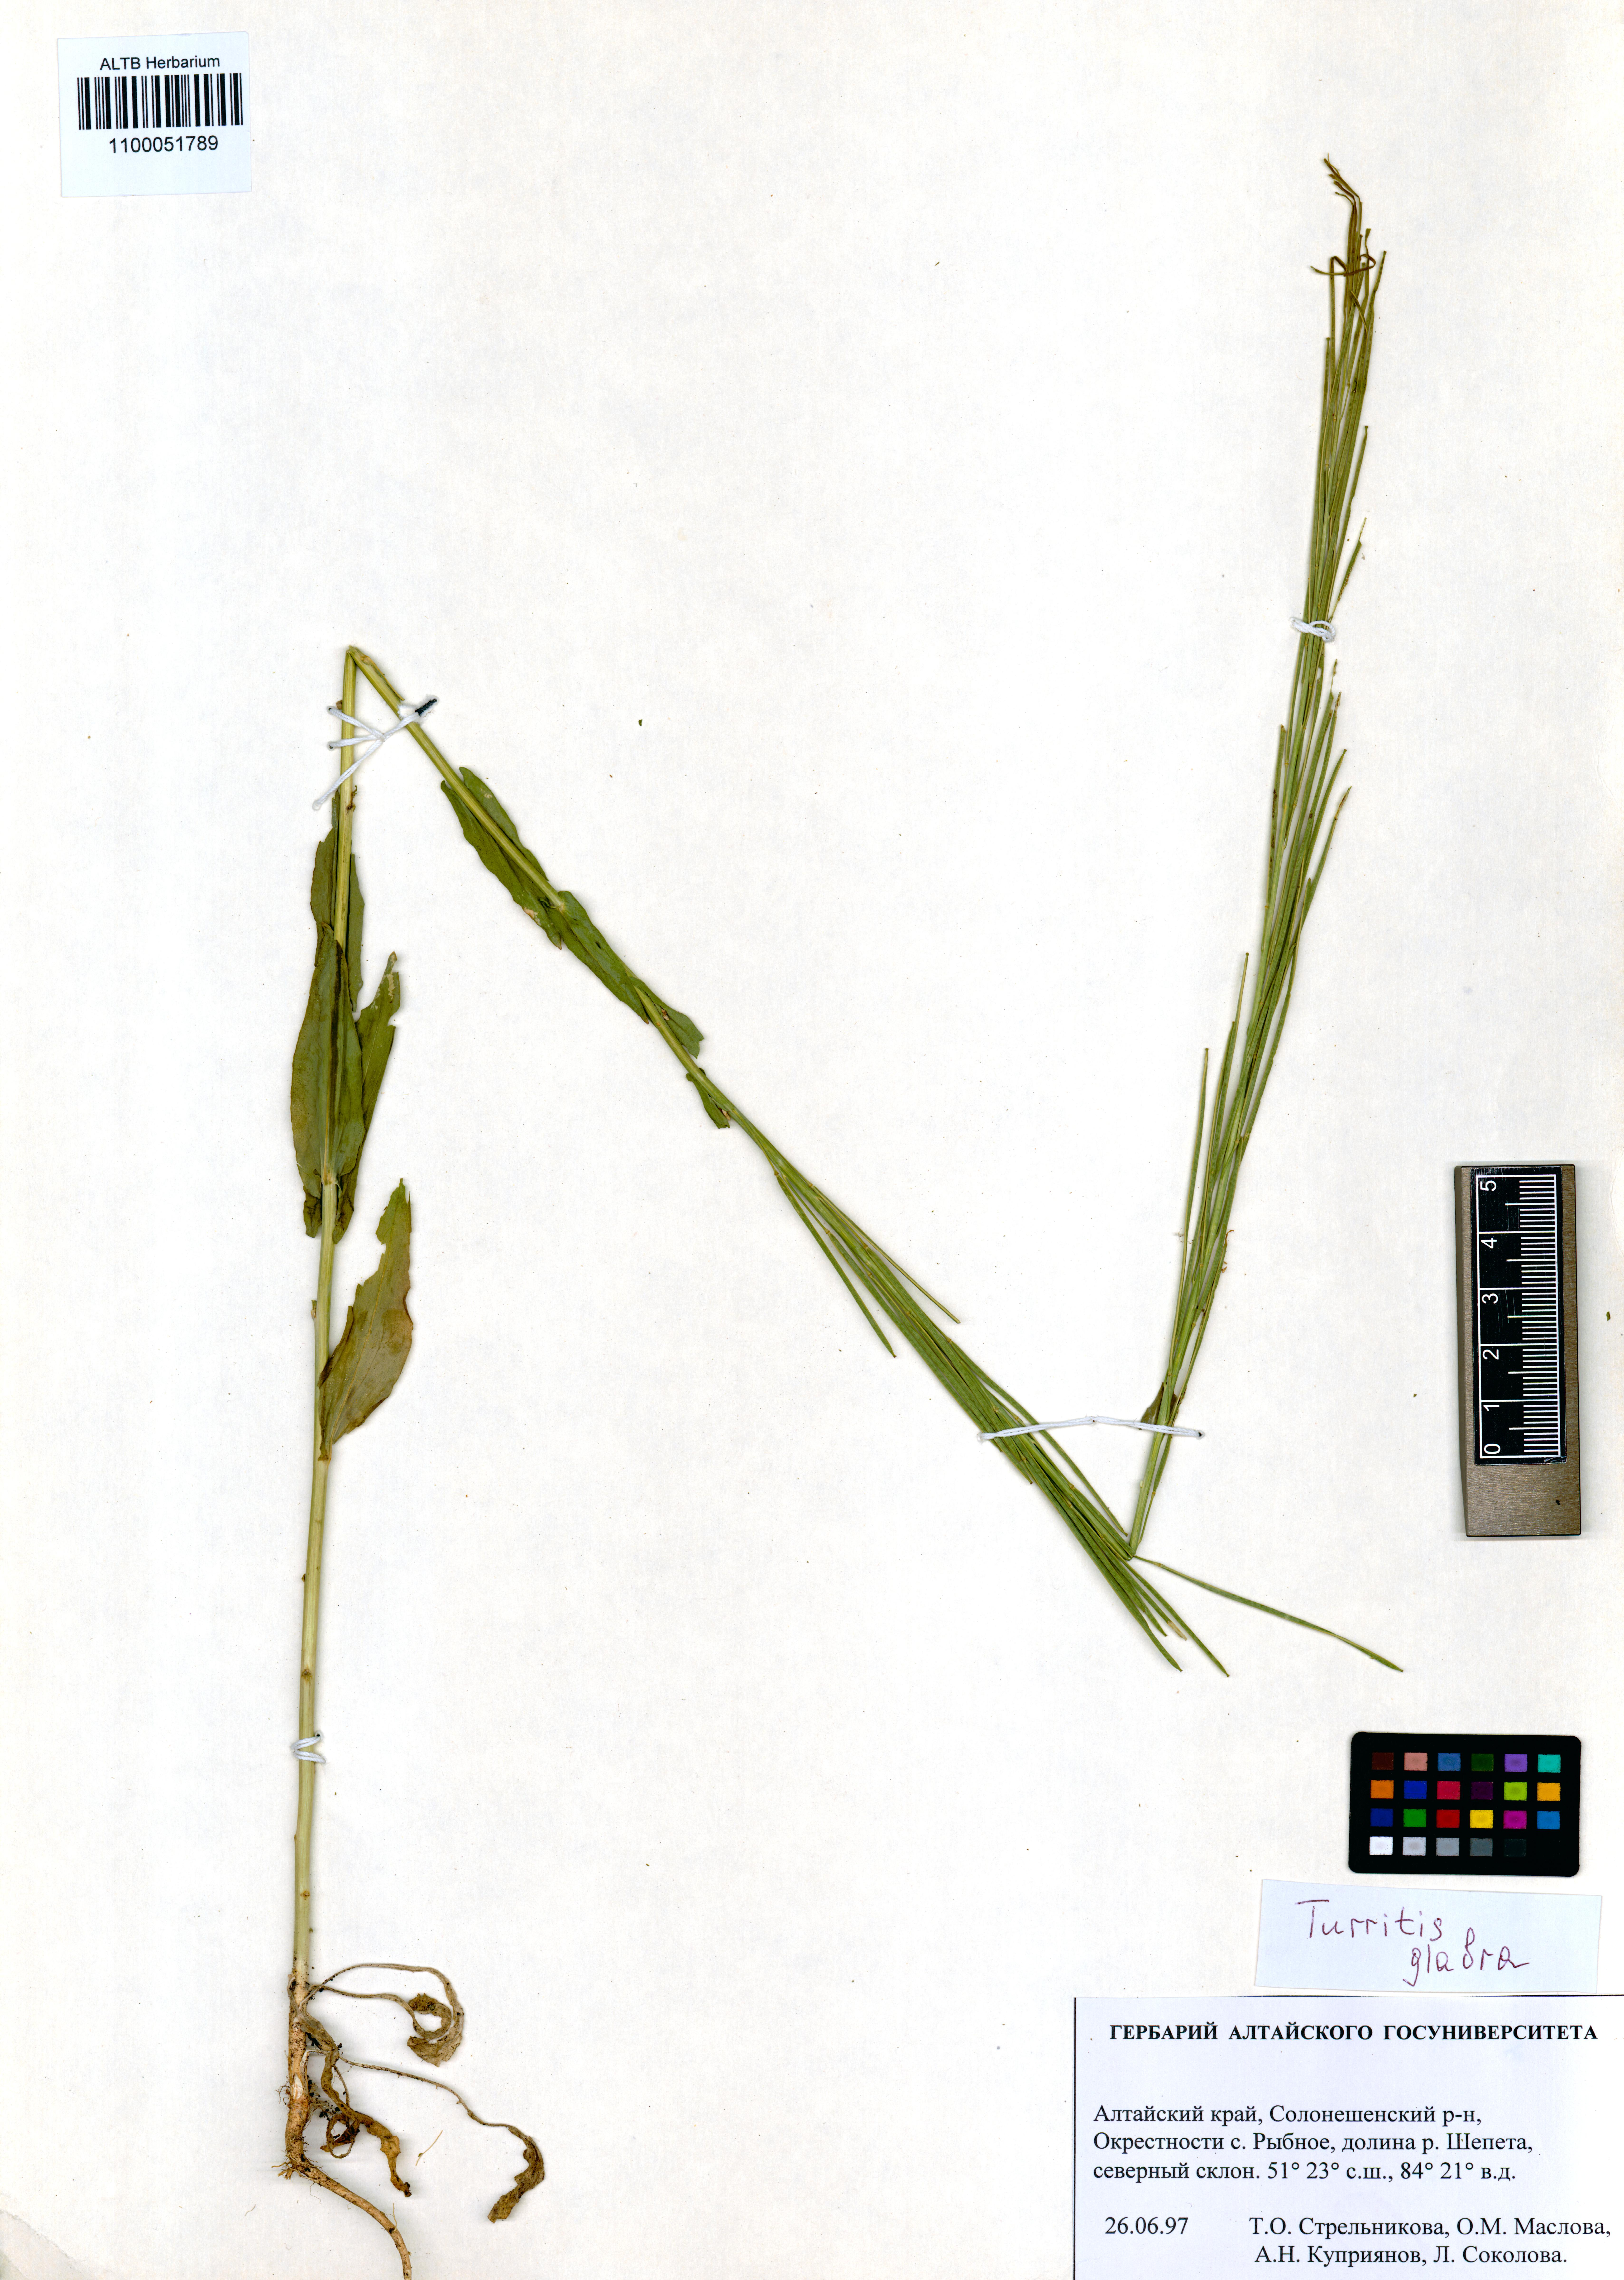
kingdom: Plantae
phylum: Tracheophyta
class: Magnoliopsida
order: Brassicales
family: Brassicaceae
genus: Turritis
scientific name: Turritis glabra
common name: Tower rockcress
